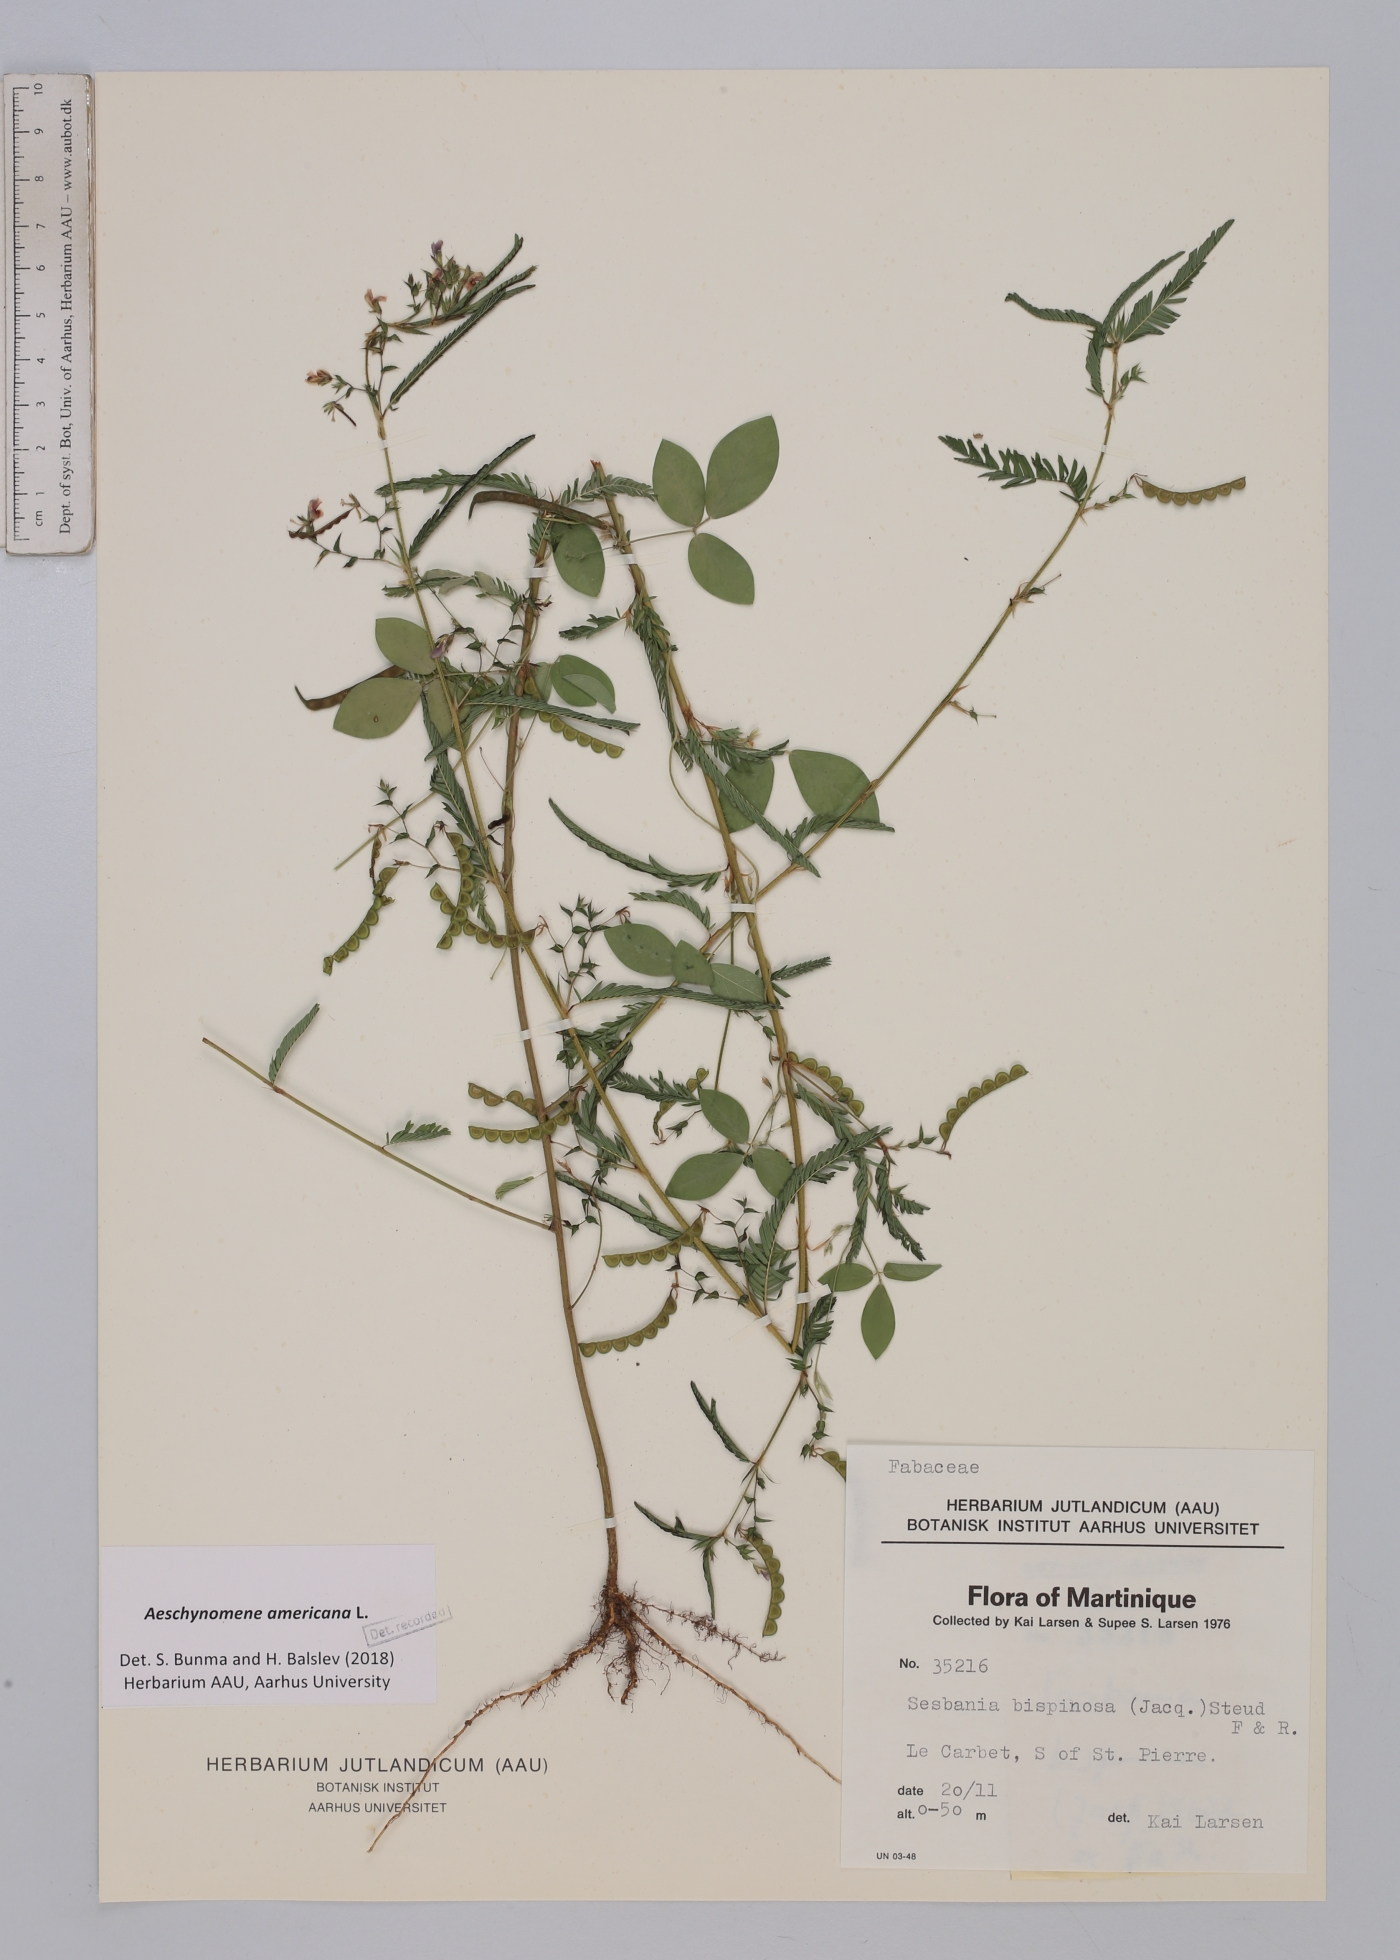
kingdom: Plantae
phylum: Tracheophyta
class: Magnoliopsida
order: Fabales
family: Fabaceae
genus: Aeschynomene
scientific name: Aeschynomene americana
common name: Joint-vetch
